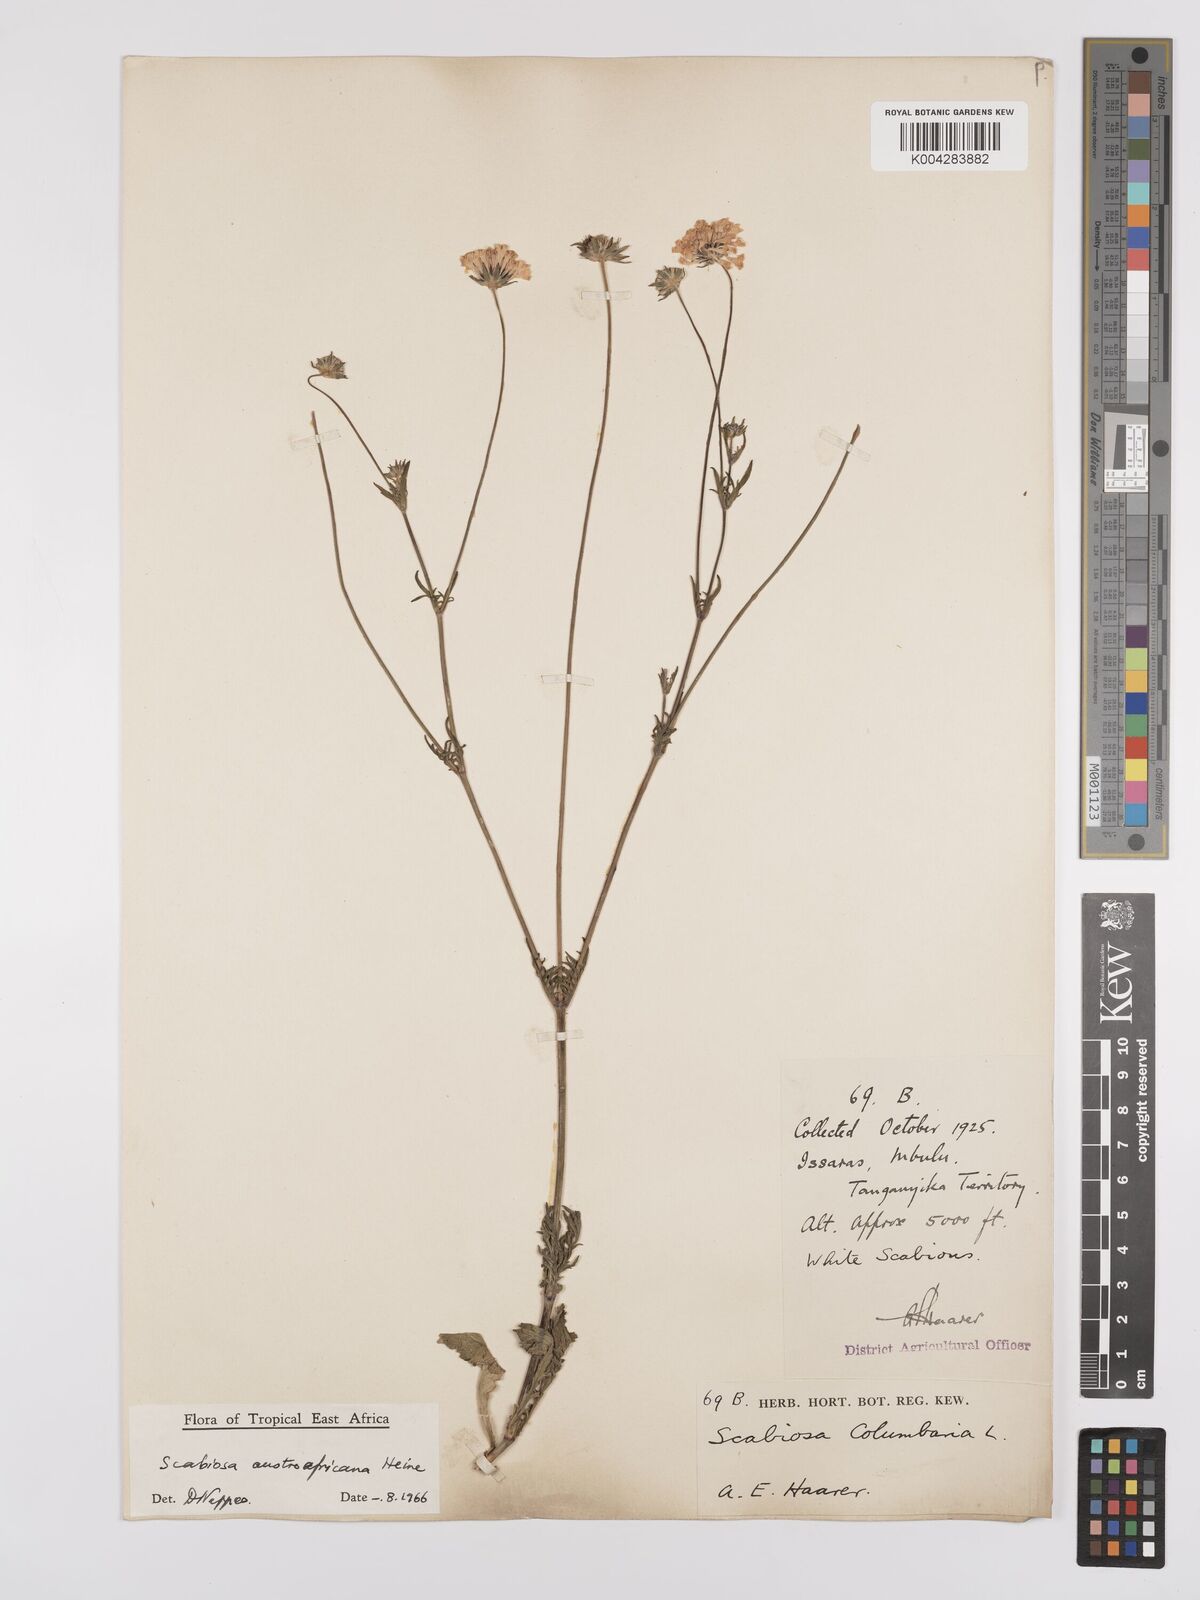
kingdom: Plantae
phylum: Tracheophyta
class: Magnoliopsida
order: Dipsacales
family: Caprifoliaceae
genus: Scabiosa
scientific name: Scabiosa austroafricana
